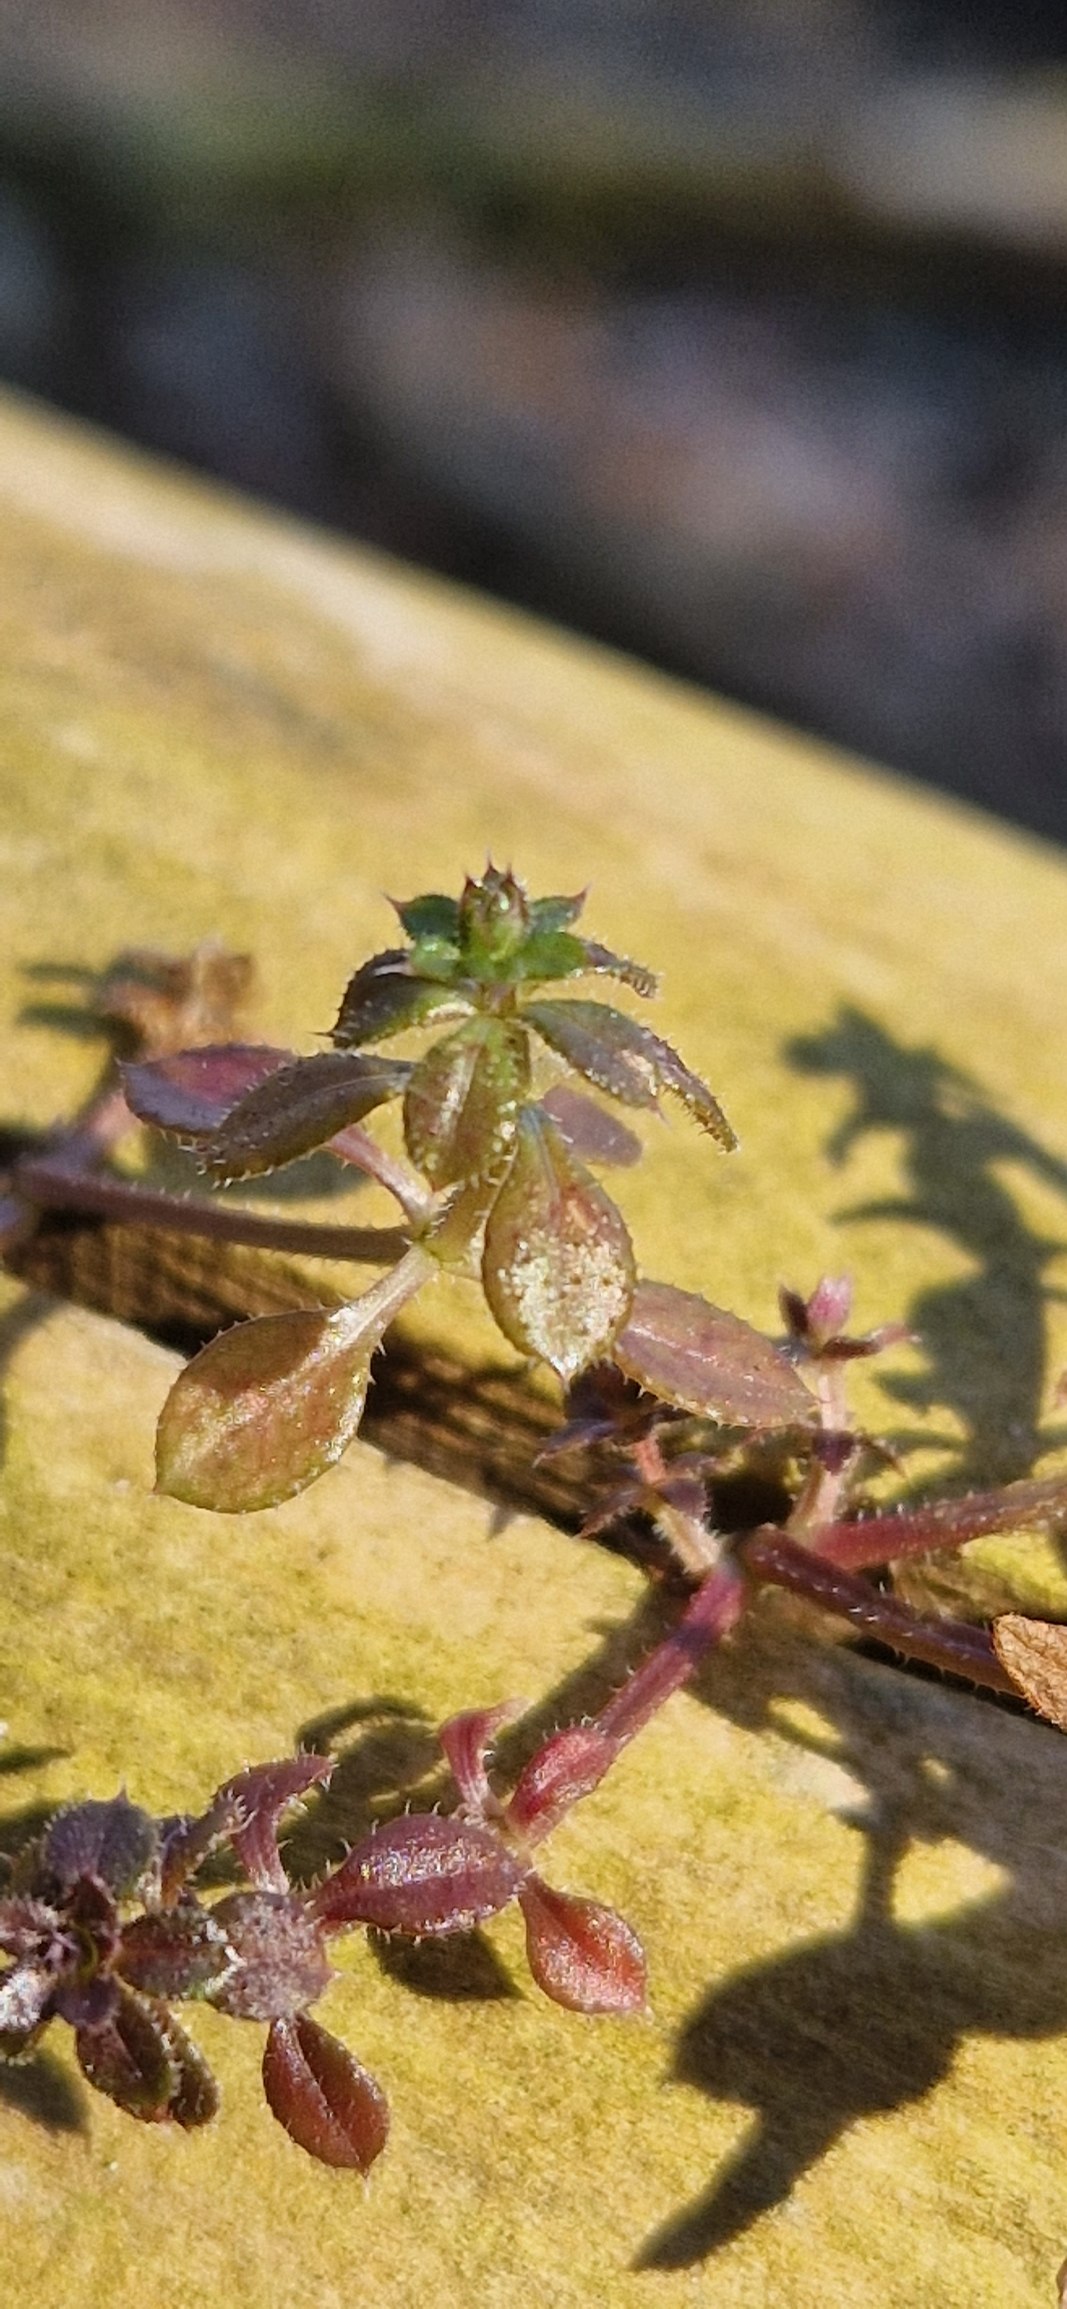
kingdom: Plantae
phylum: Tracheophyta
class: Magnoliopsida
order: Gentianales
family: Rubiaceae
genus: Galium
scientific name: Galium aparine
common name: Burre-snerre
